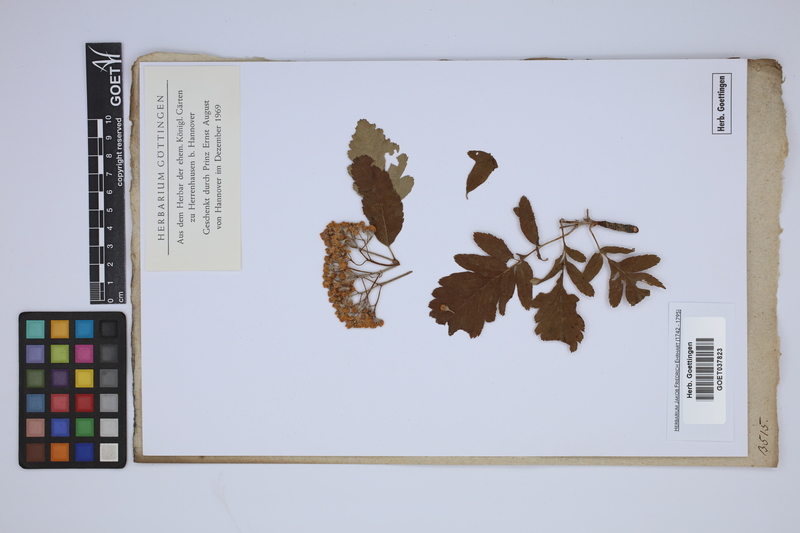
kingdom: Plantae
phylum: Tracheophyta
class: Magnoliopsida
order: Rosales
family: Rosaceae
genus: Hedlundia
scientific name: Hedlundia
